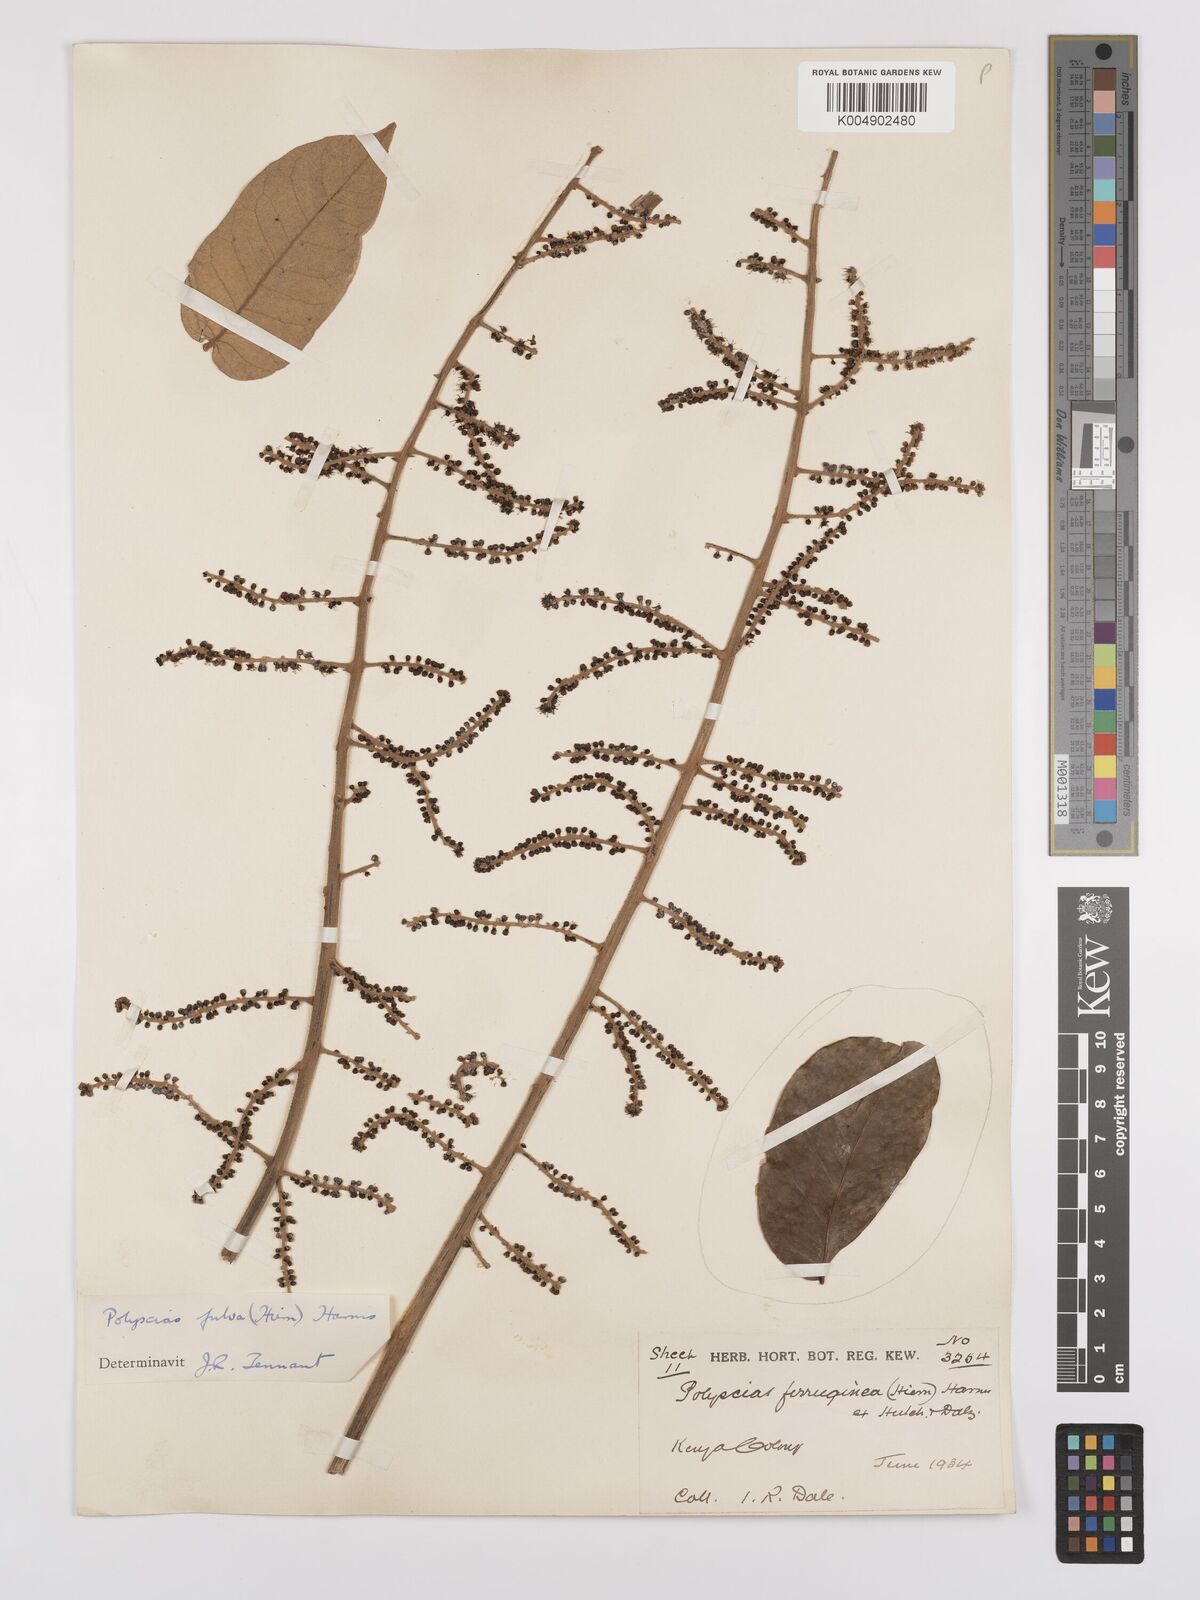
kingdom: Plantae
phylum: Tracheophyta
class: Magnoliopsida
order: Apiales
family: Araliaceae
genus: Polyscias
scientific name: Polyscias fulva
